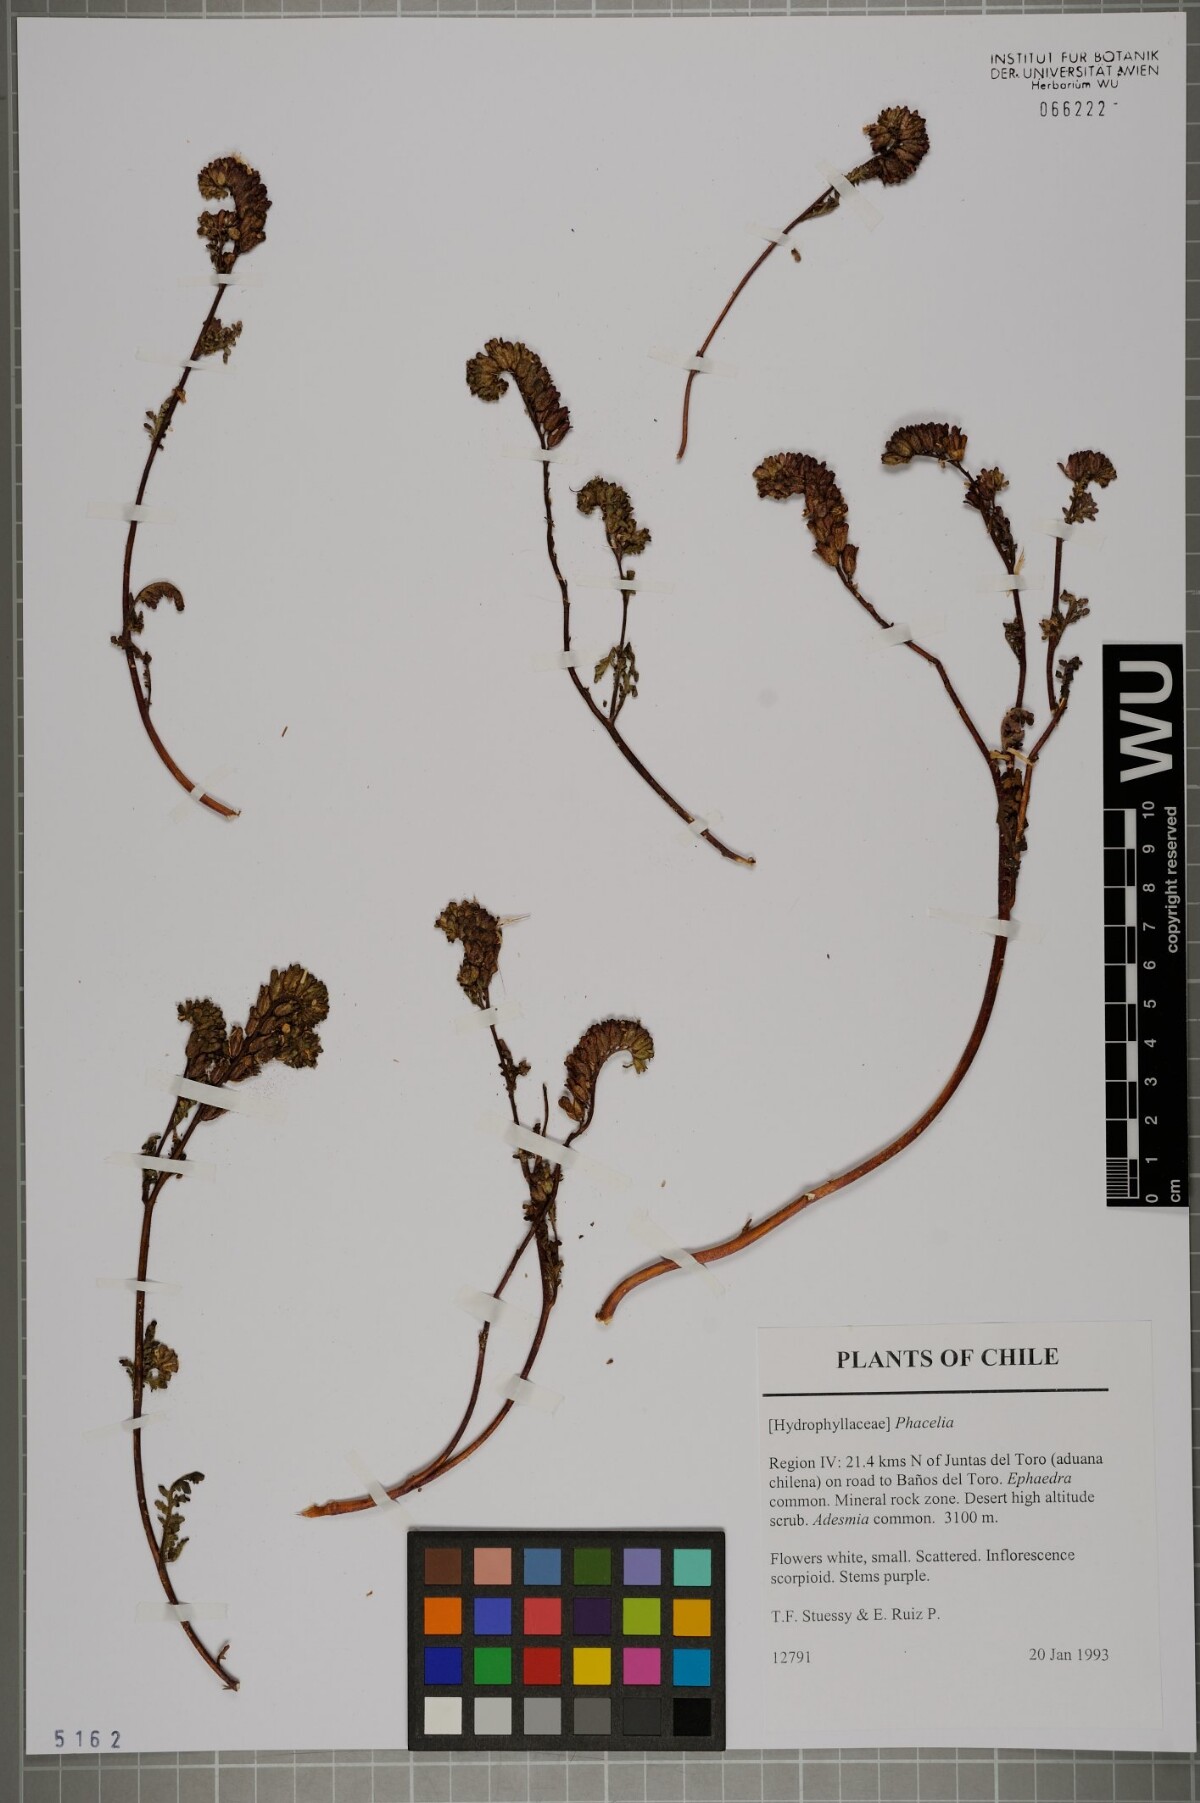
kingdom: Plantae
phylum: Tracheophyta
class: Magnoliopsida
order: Boraginales
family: Hydrophyllaceae
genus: Phacelia
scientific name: Phacelia
